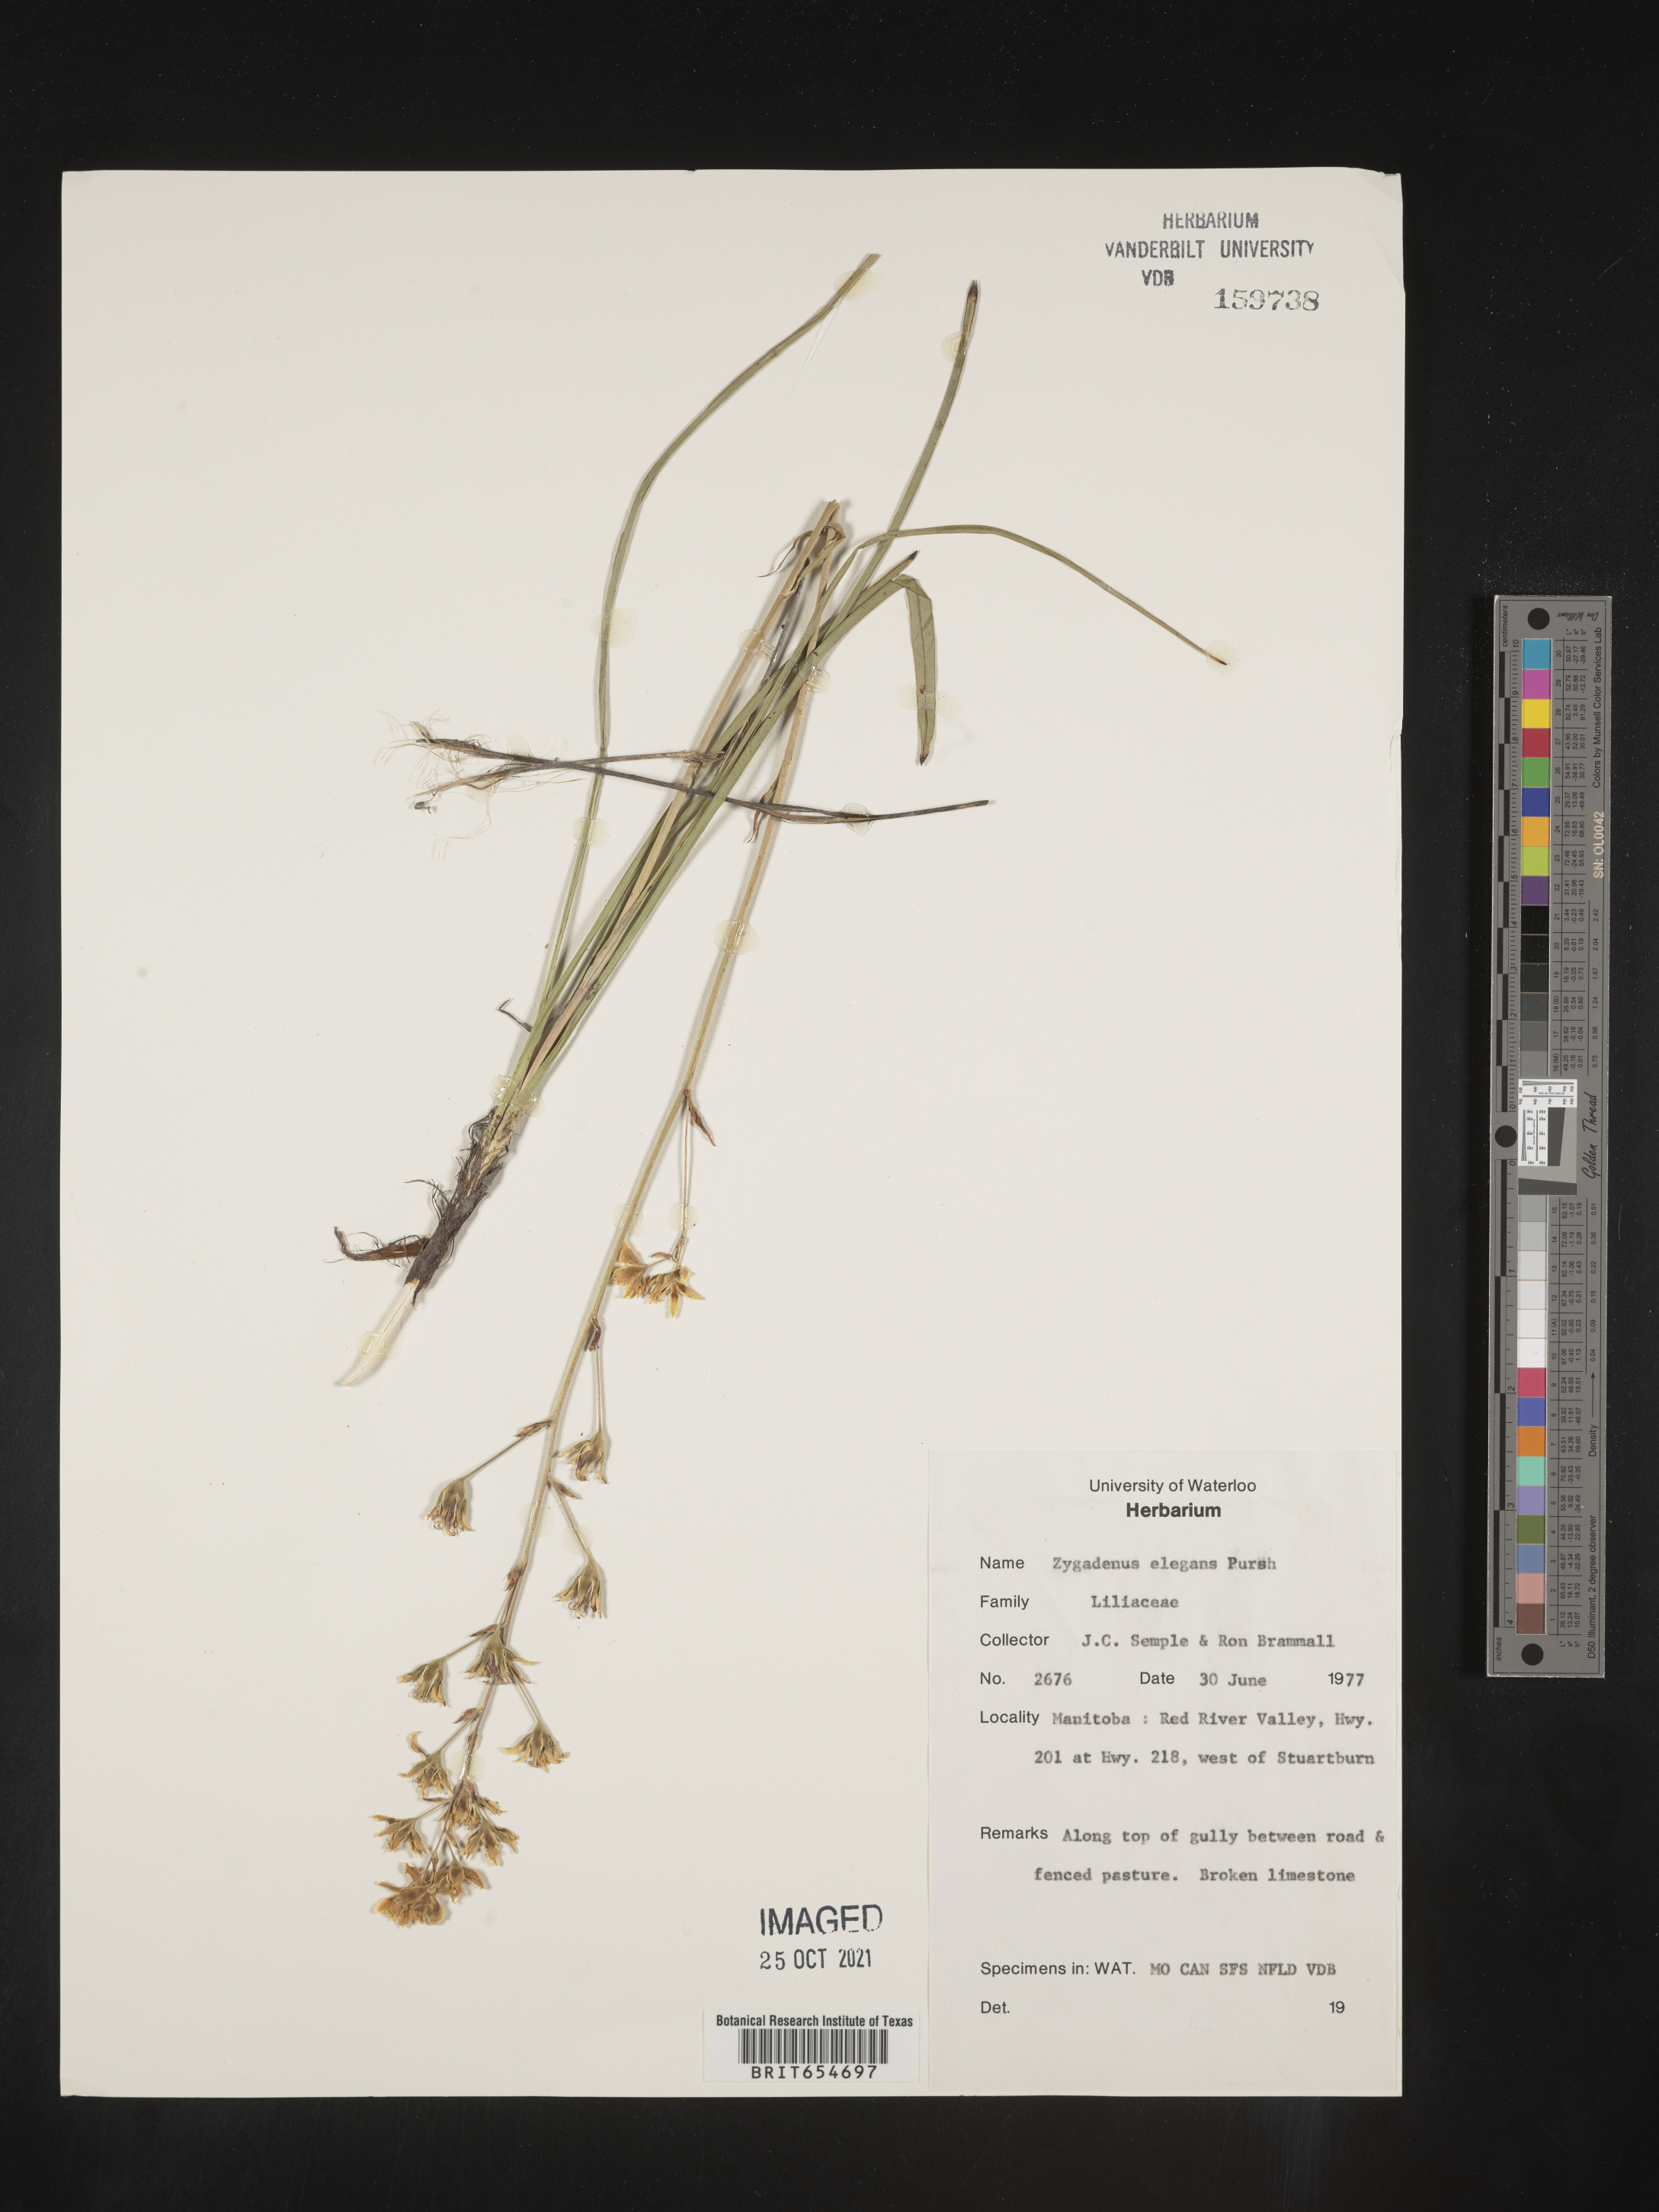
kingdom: Plantae
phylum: Tracheophyta
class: Liliopsida
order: Liliales
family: Melanthiaceae
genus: Zigadenus
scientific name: Zigadenus
